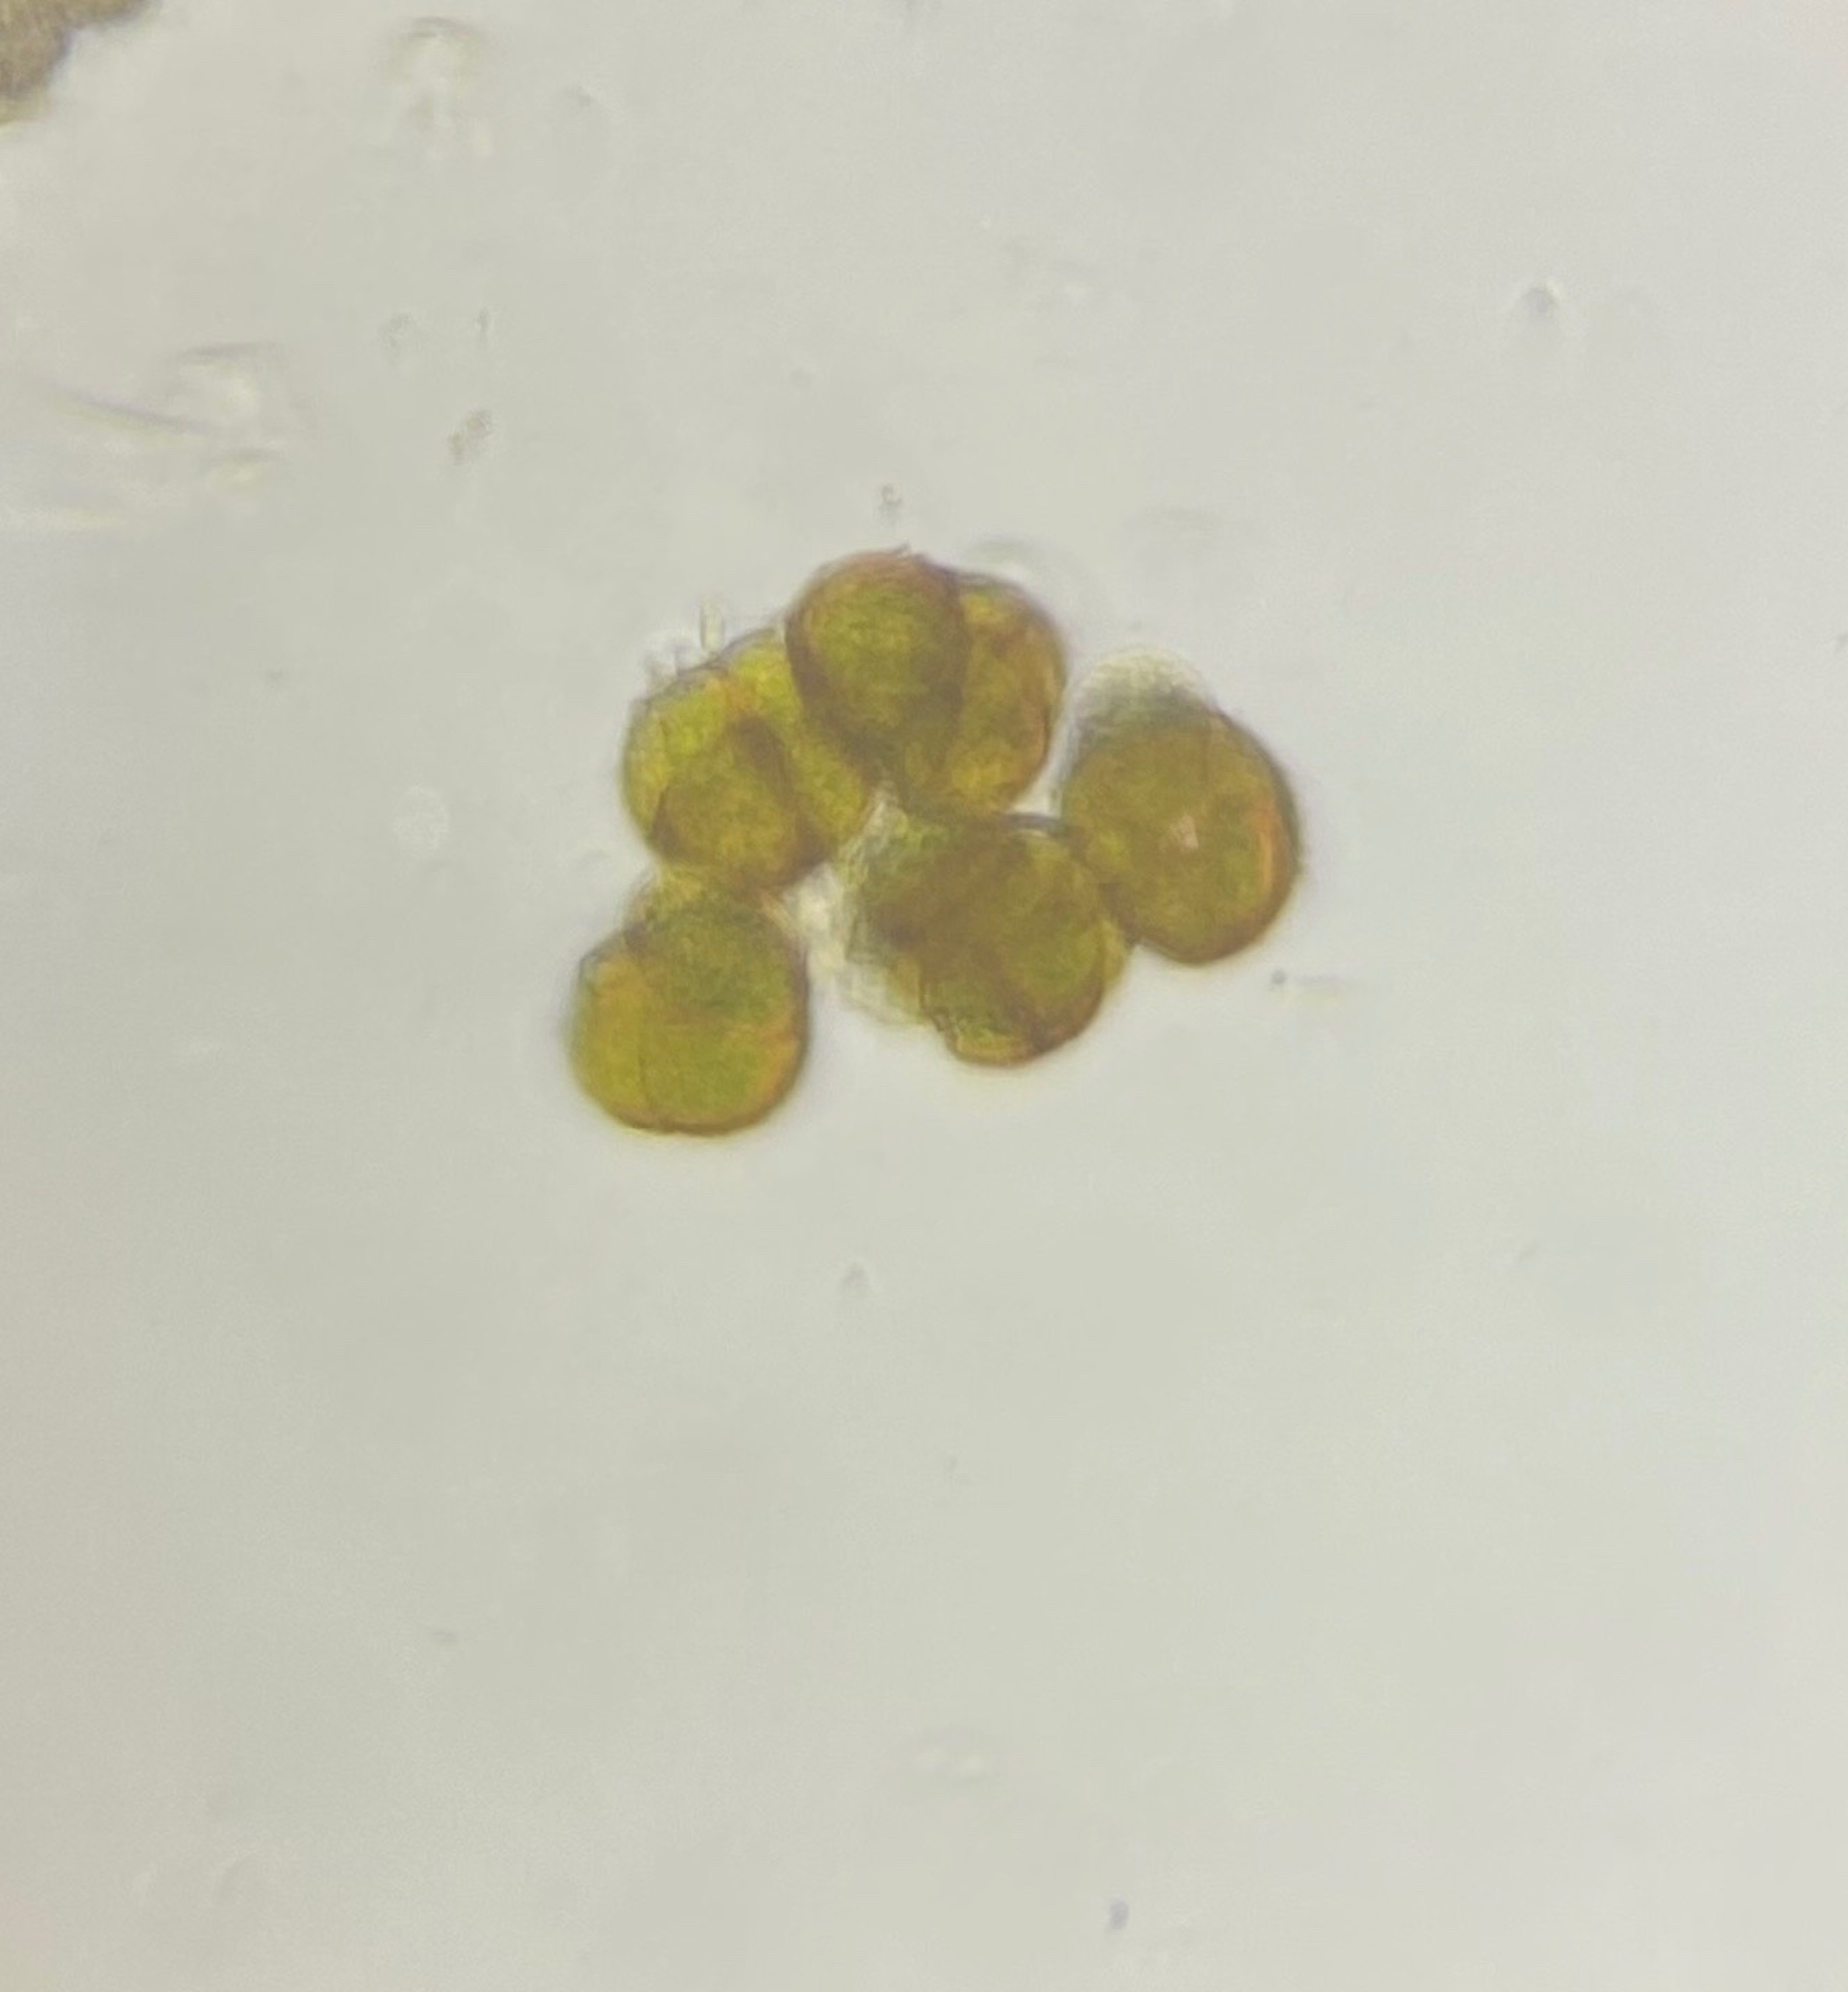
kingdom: Plantae
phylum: Bryophyta
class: Bryopsida
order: Pottiales
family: Pottiaceae
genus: Didymodon
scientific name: Didymodon rigidulus
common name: Stiv kalktuemos
